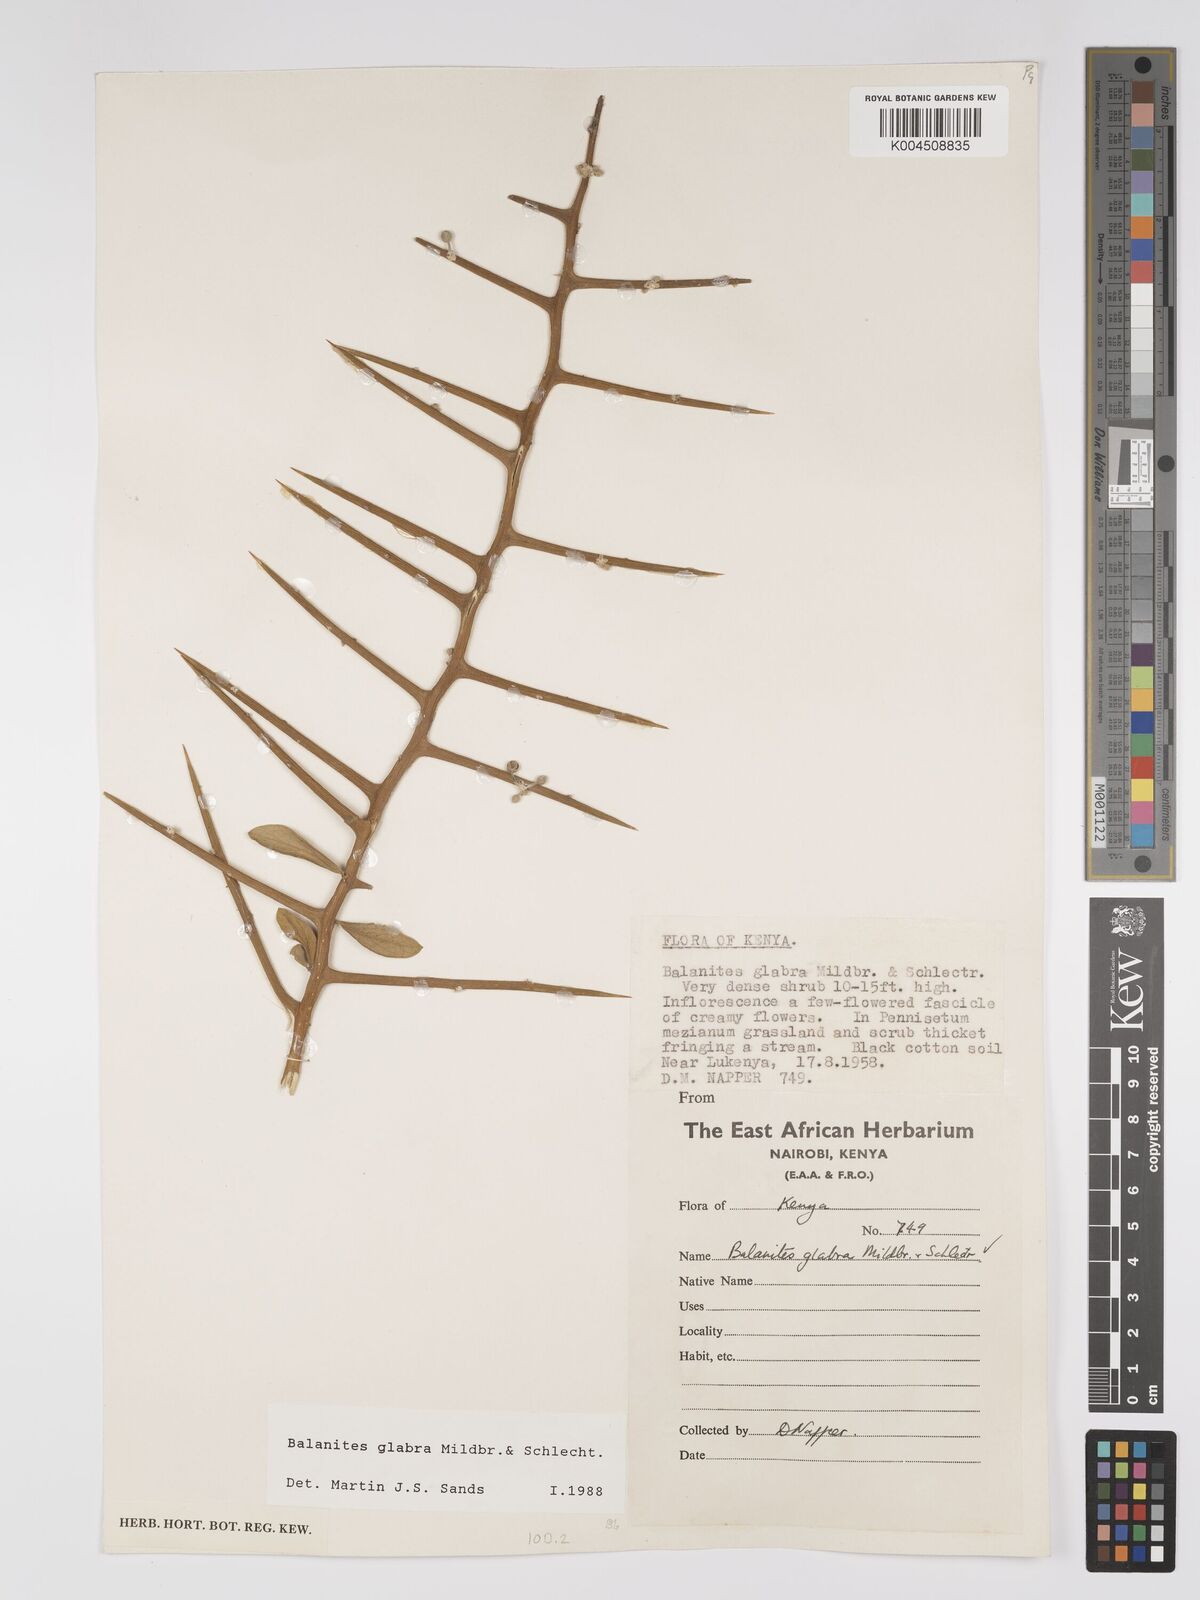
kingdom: Plantae
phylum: Tracheophyta
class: Magnoliopsida
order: Zygophyllales
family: Zygophyllaceae
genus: Balanites
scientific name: Balanites glabra
